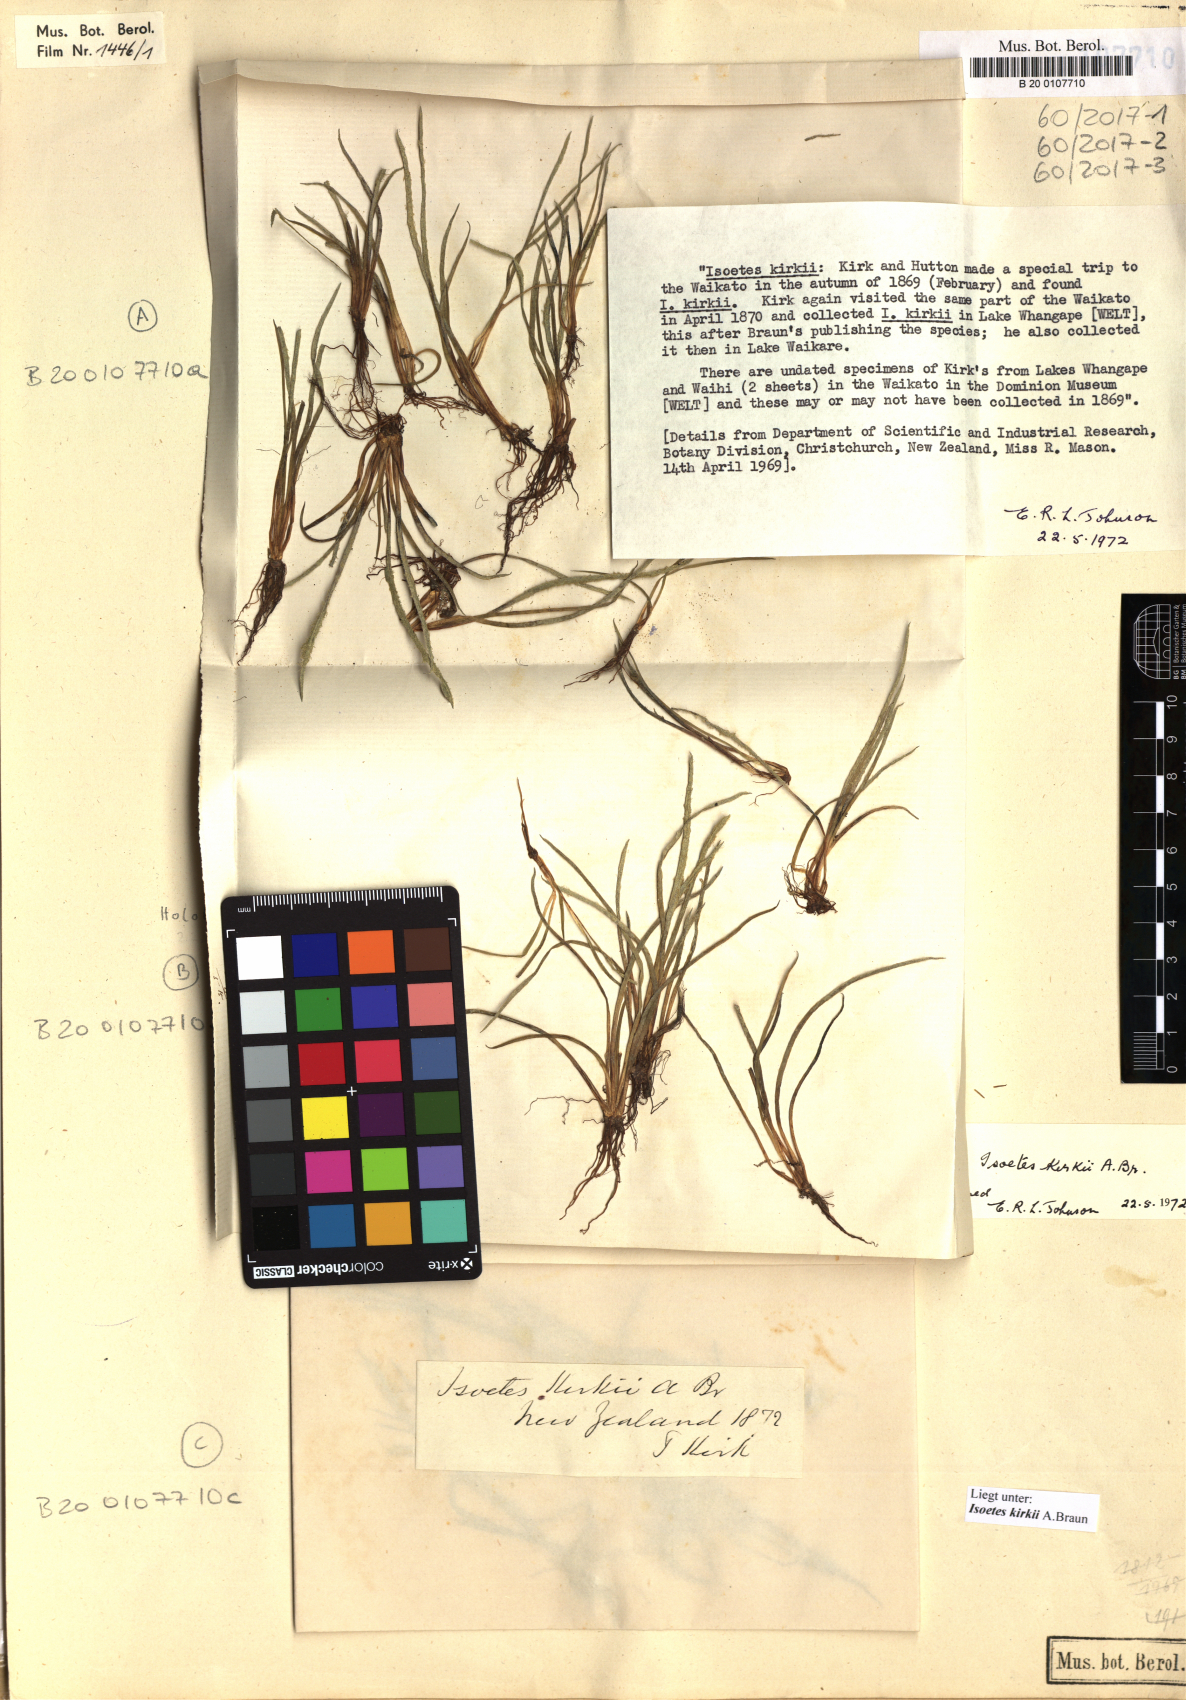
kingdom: Plantae
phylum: Tracheophyta
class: Lycopodiopsida
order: Isoetales
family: Isoetaceae
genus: Isoetes
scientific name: Isoetes kirkii
